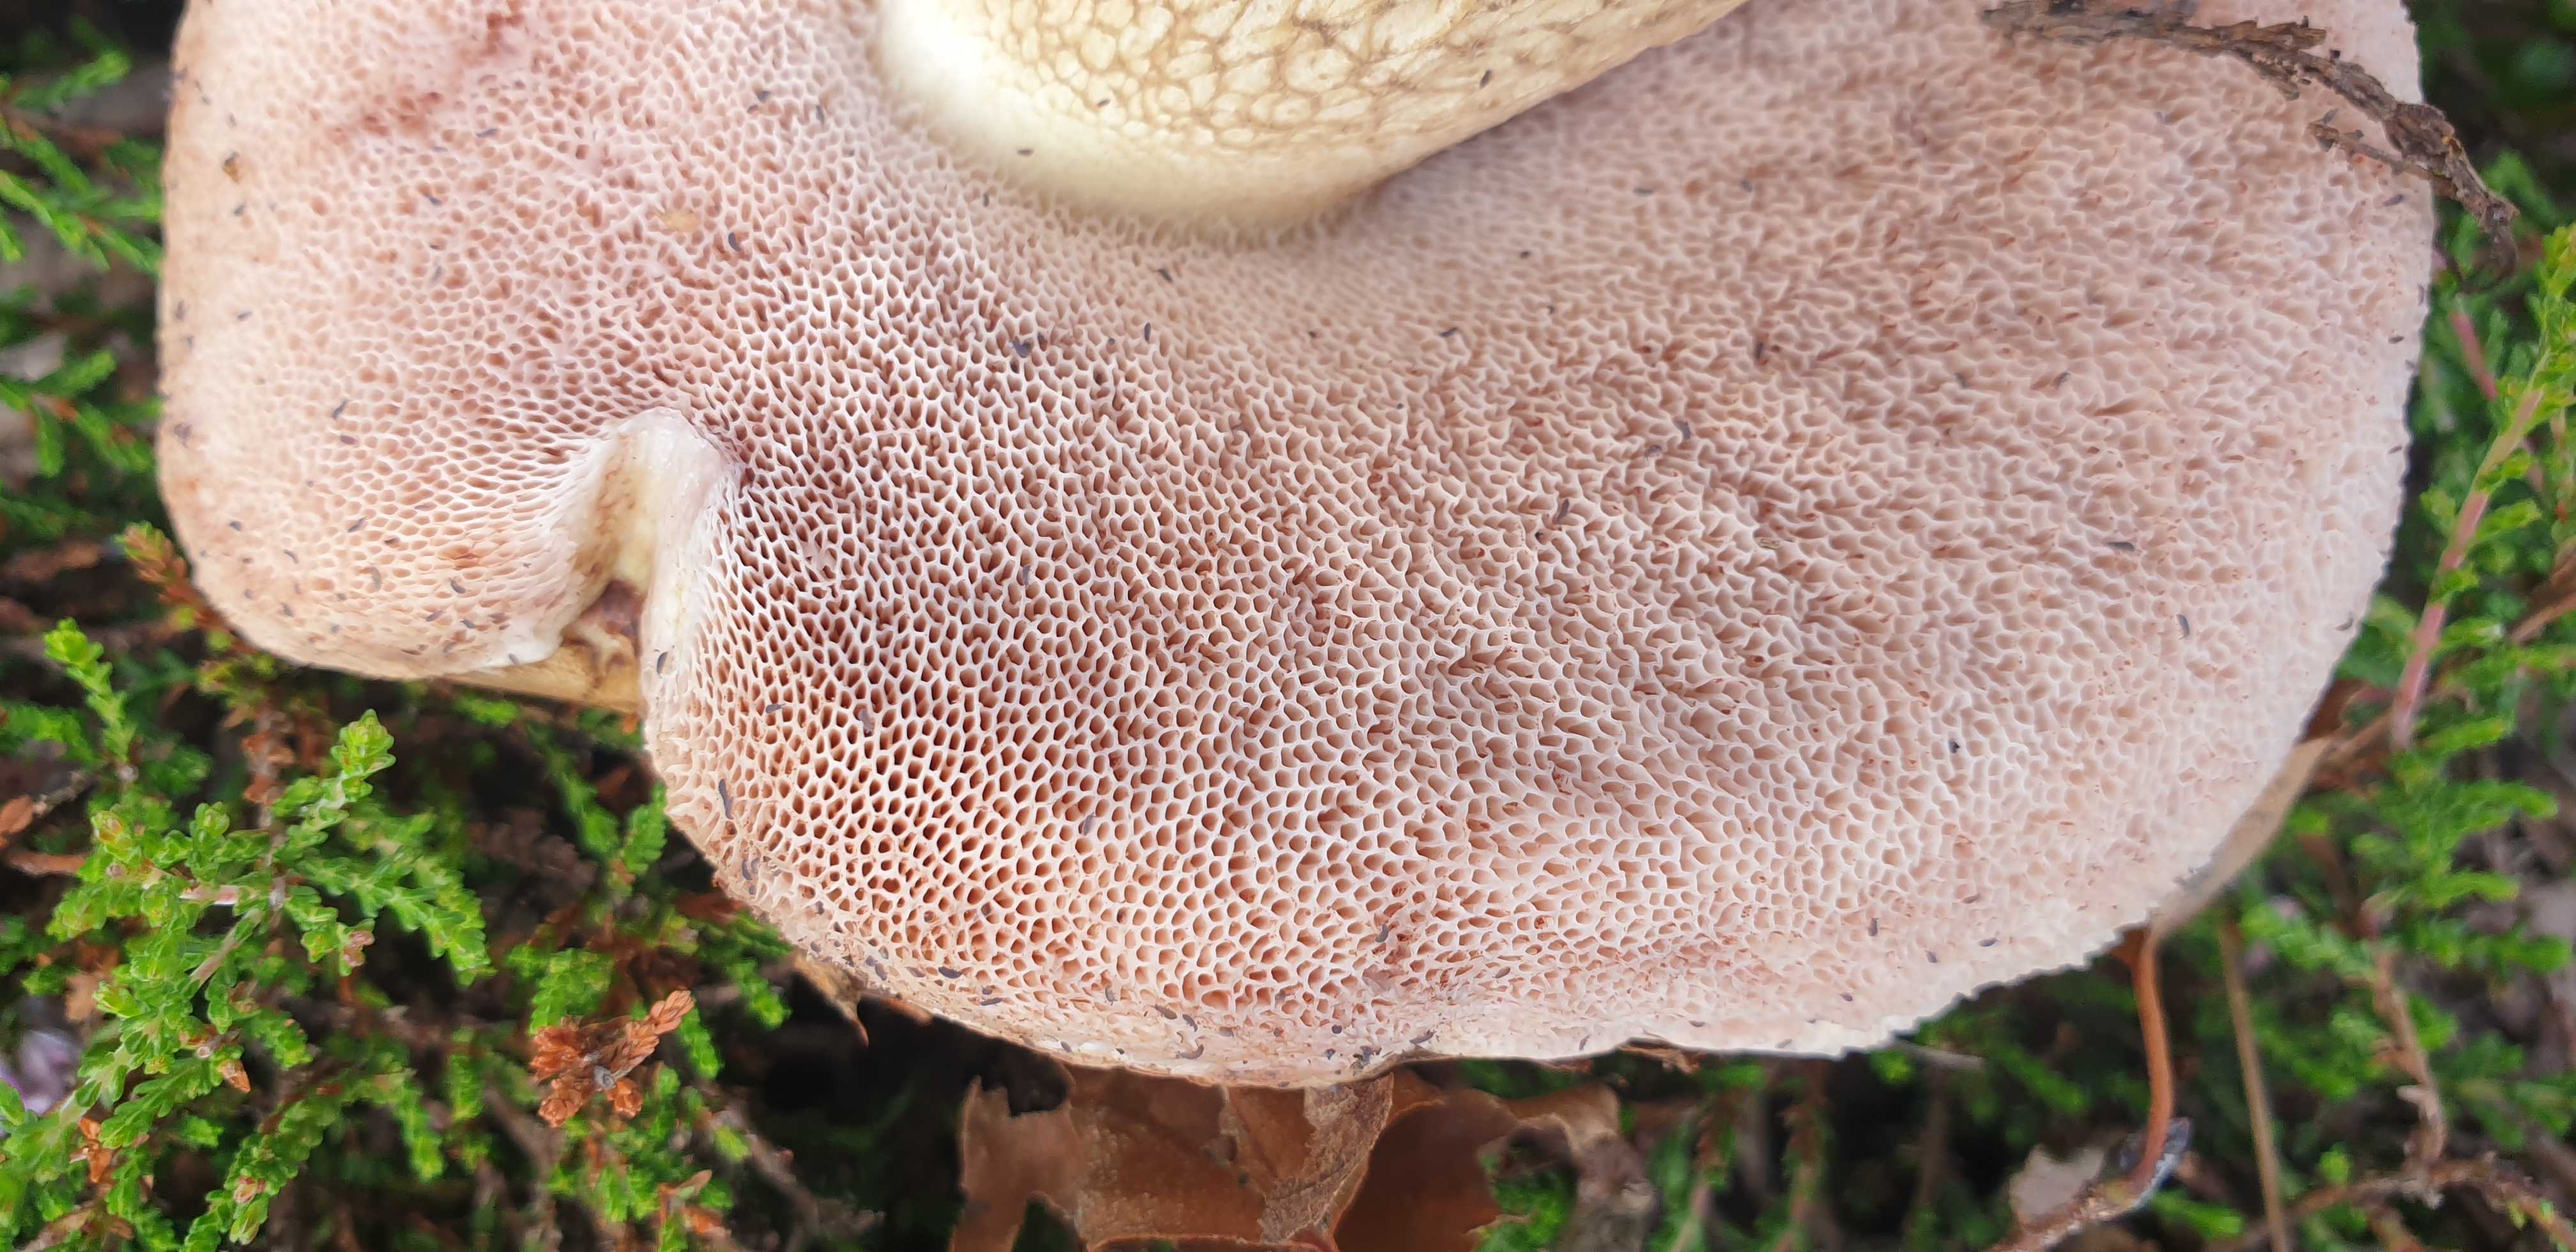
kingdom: Fungi
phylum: Basidiomycota
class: Agaricomycetes
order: Boletales
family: Boletaceae
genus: Tylopilus
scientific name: Tylopilus felleus
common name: galderørhat
